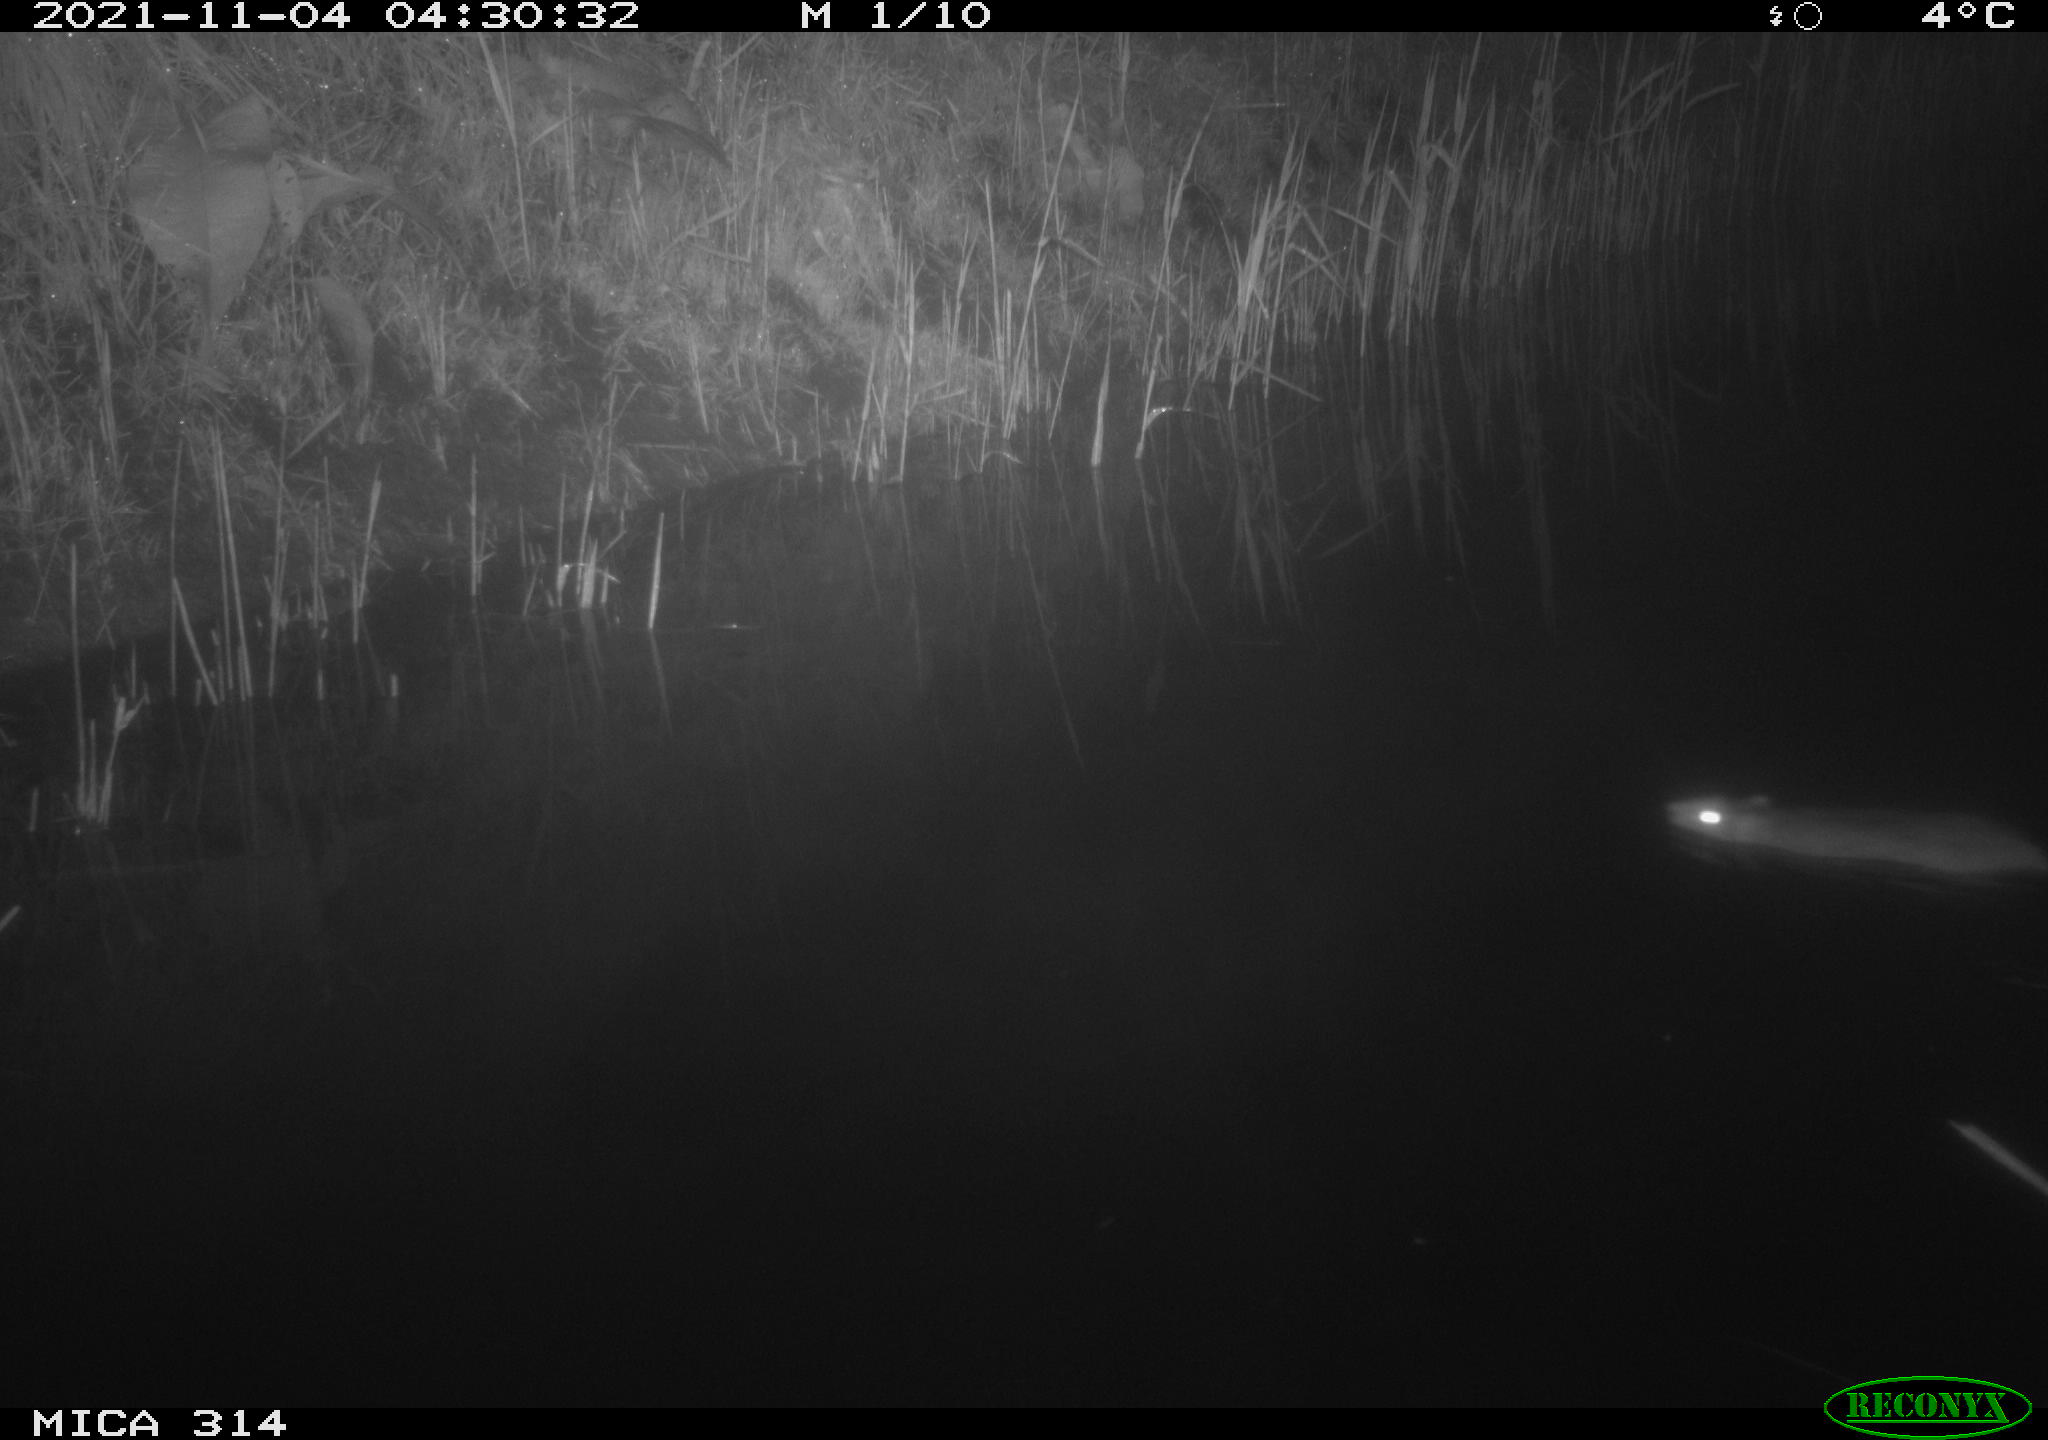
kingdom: Animalia
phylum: Chordata
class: Mammalia
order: Rodentia
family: Muridae
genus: Rattus
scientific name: Rattus norvegicus
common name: Brown rat
